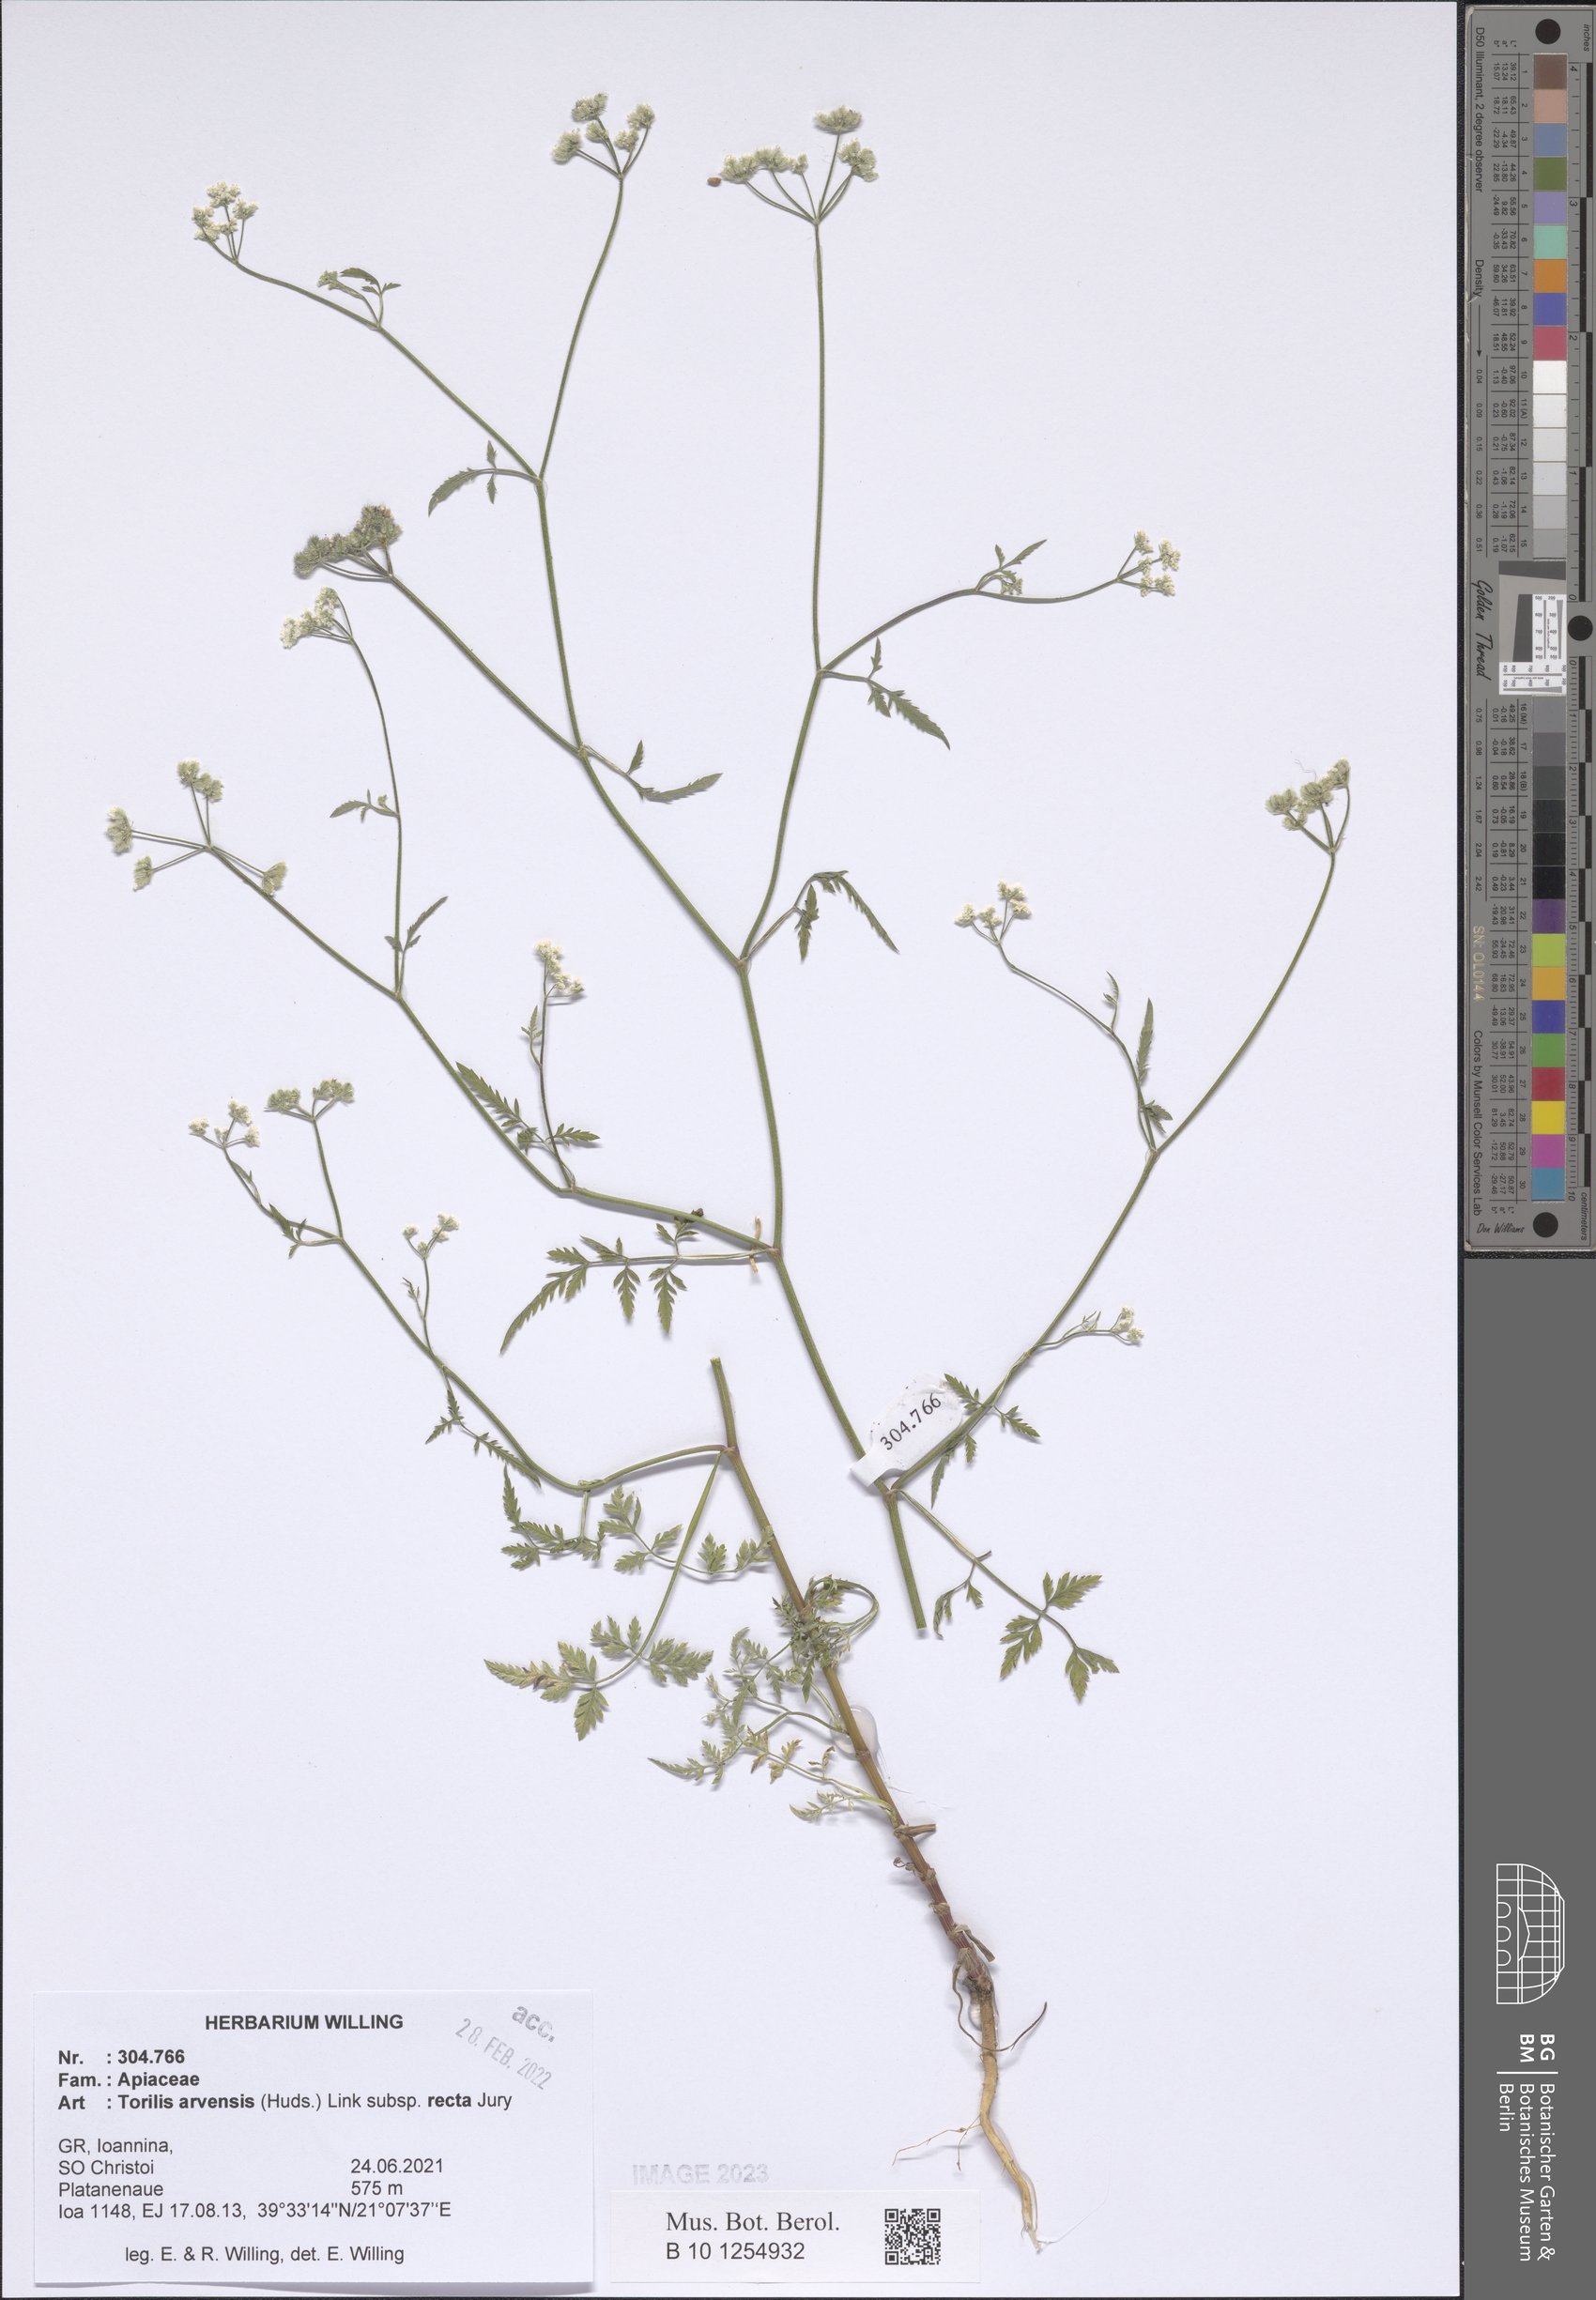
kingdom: Plantae
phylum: Tracheophyta
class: Magnoliopsida
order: Apiales
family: Apiaceae
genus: Torilis
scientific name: Torilis arvensis
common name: Spreading hedge-parsley
